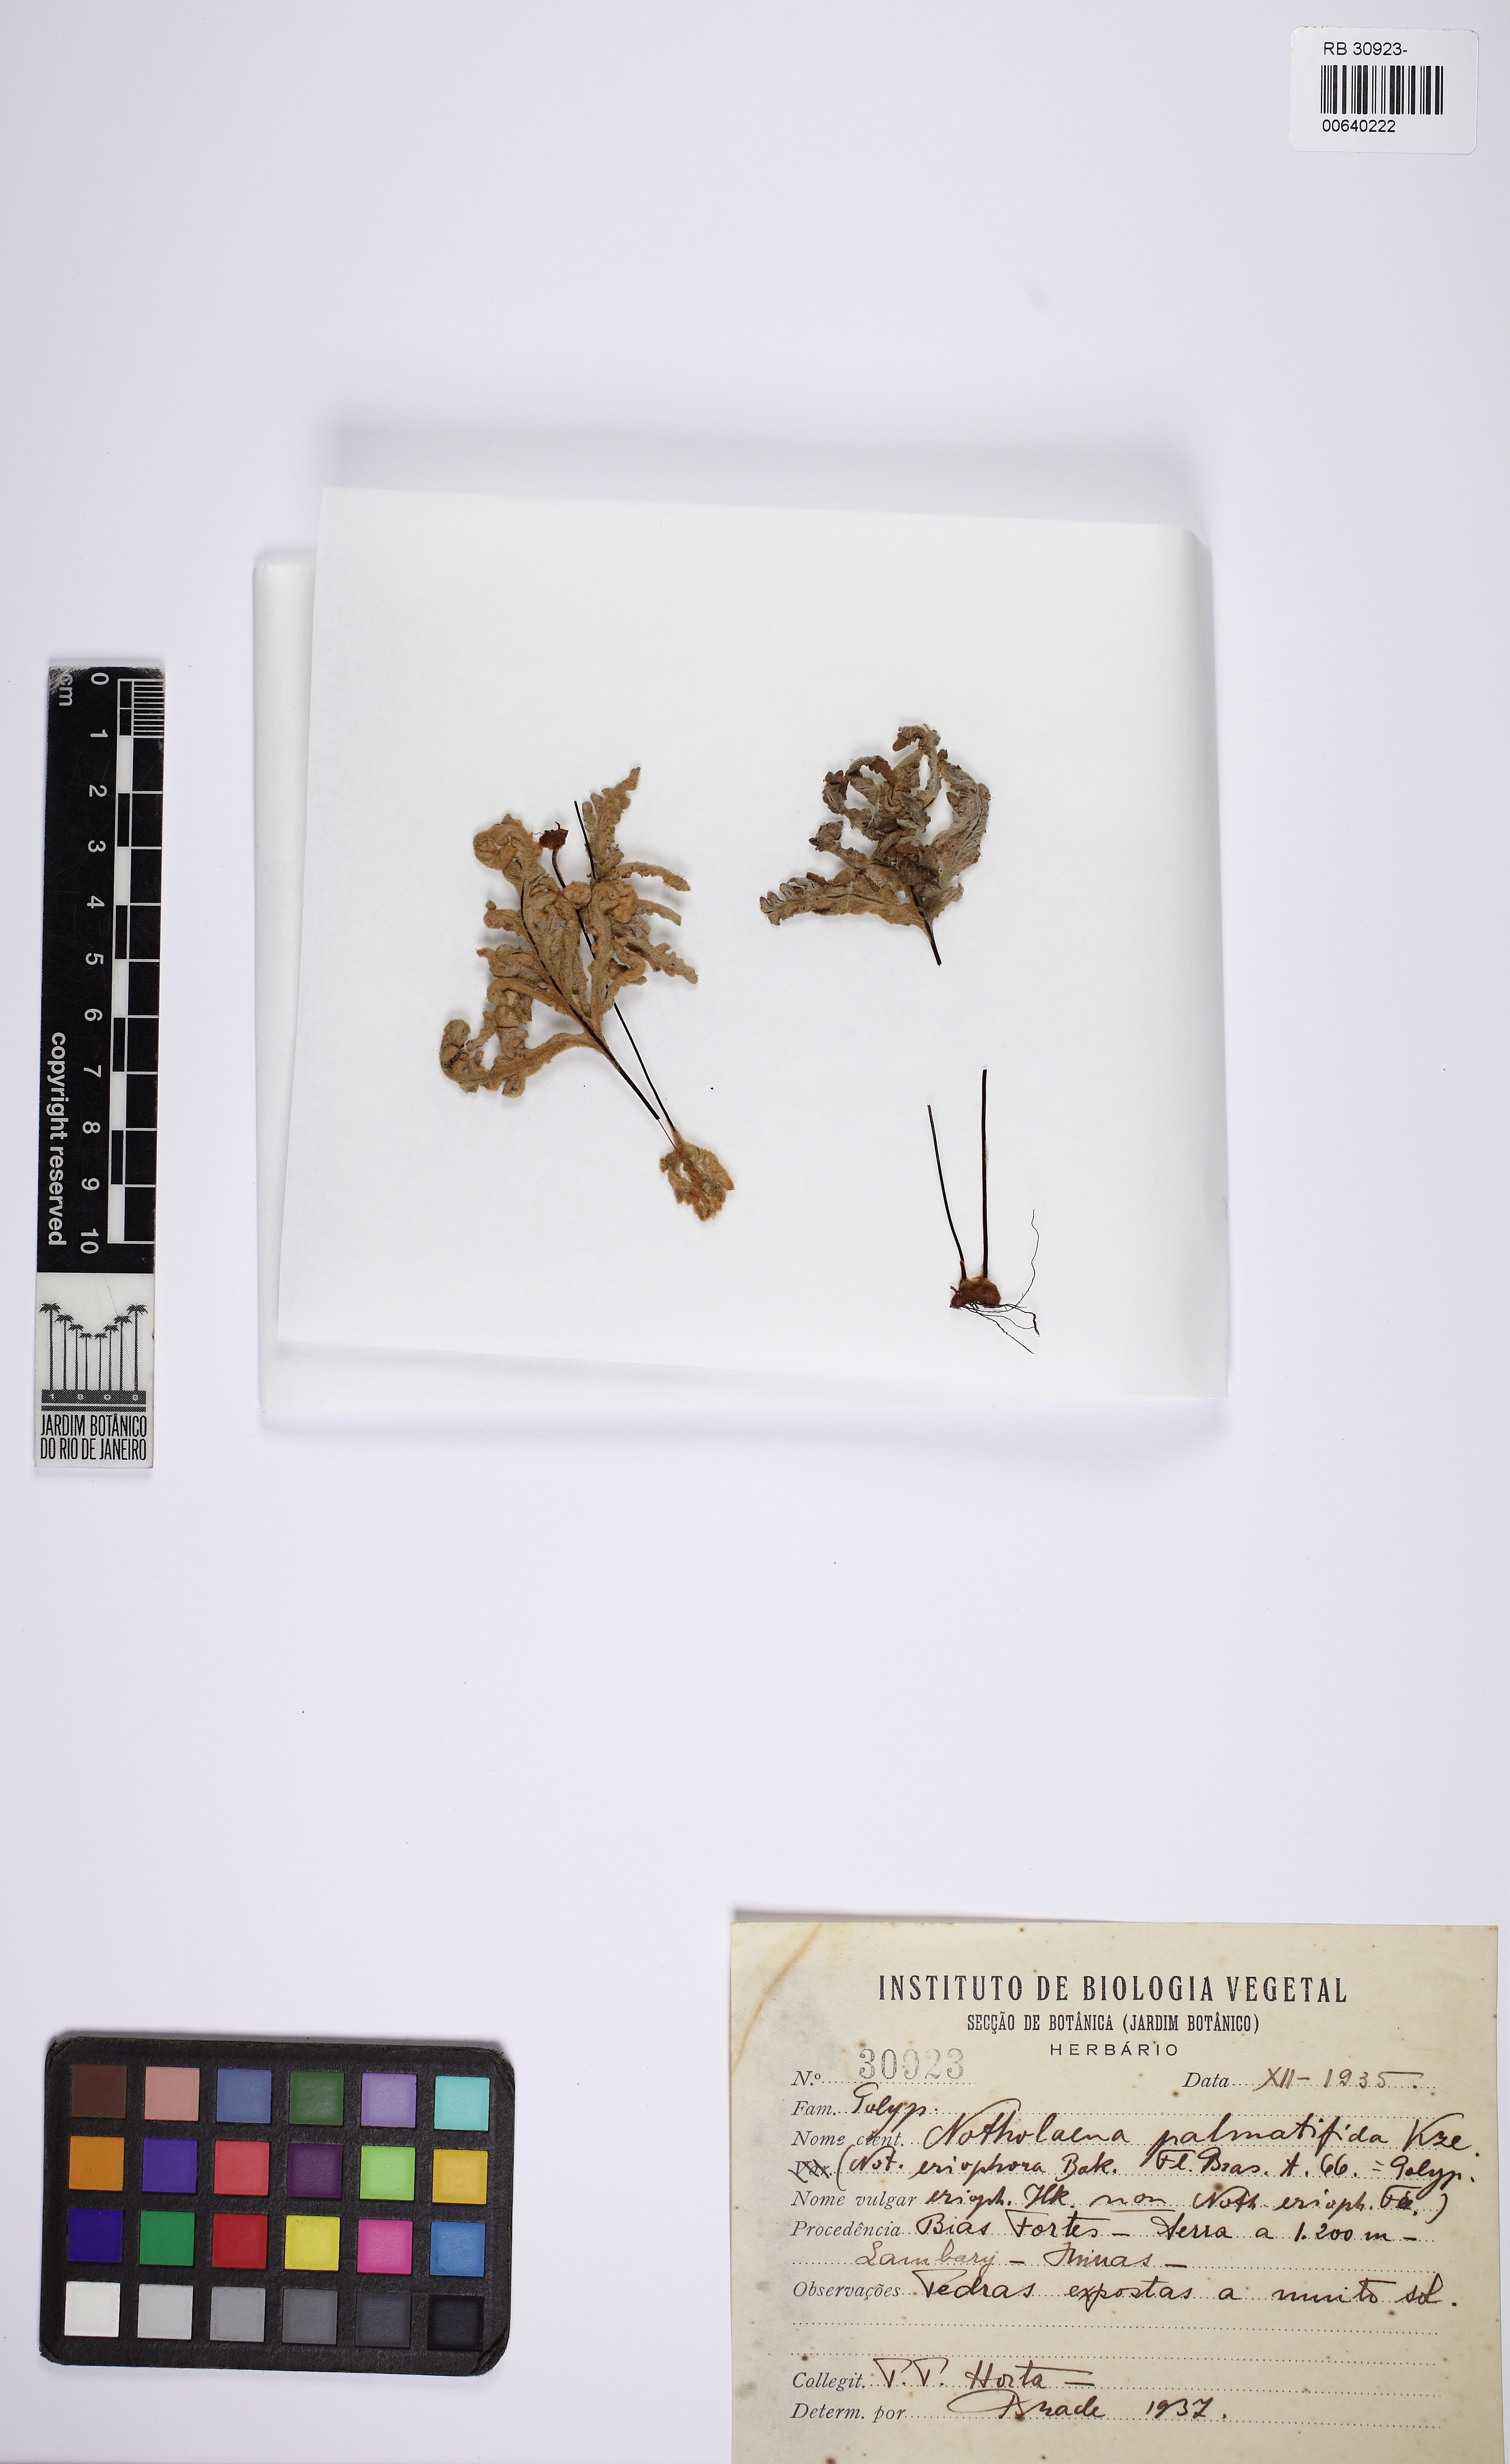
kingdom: Plantae
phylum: Tracheophyta
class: Polypodiopsida
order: Polypodiales
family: Pteridaceae
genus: Mineirella
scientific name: Mineirella goyazensis
